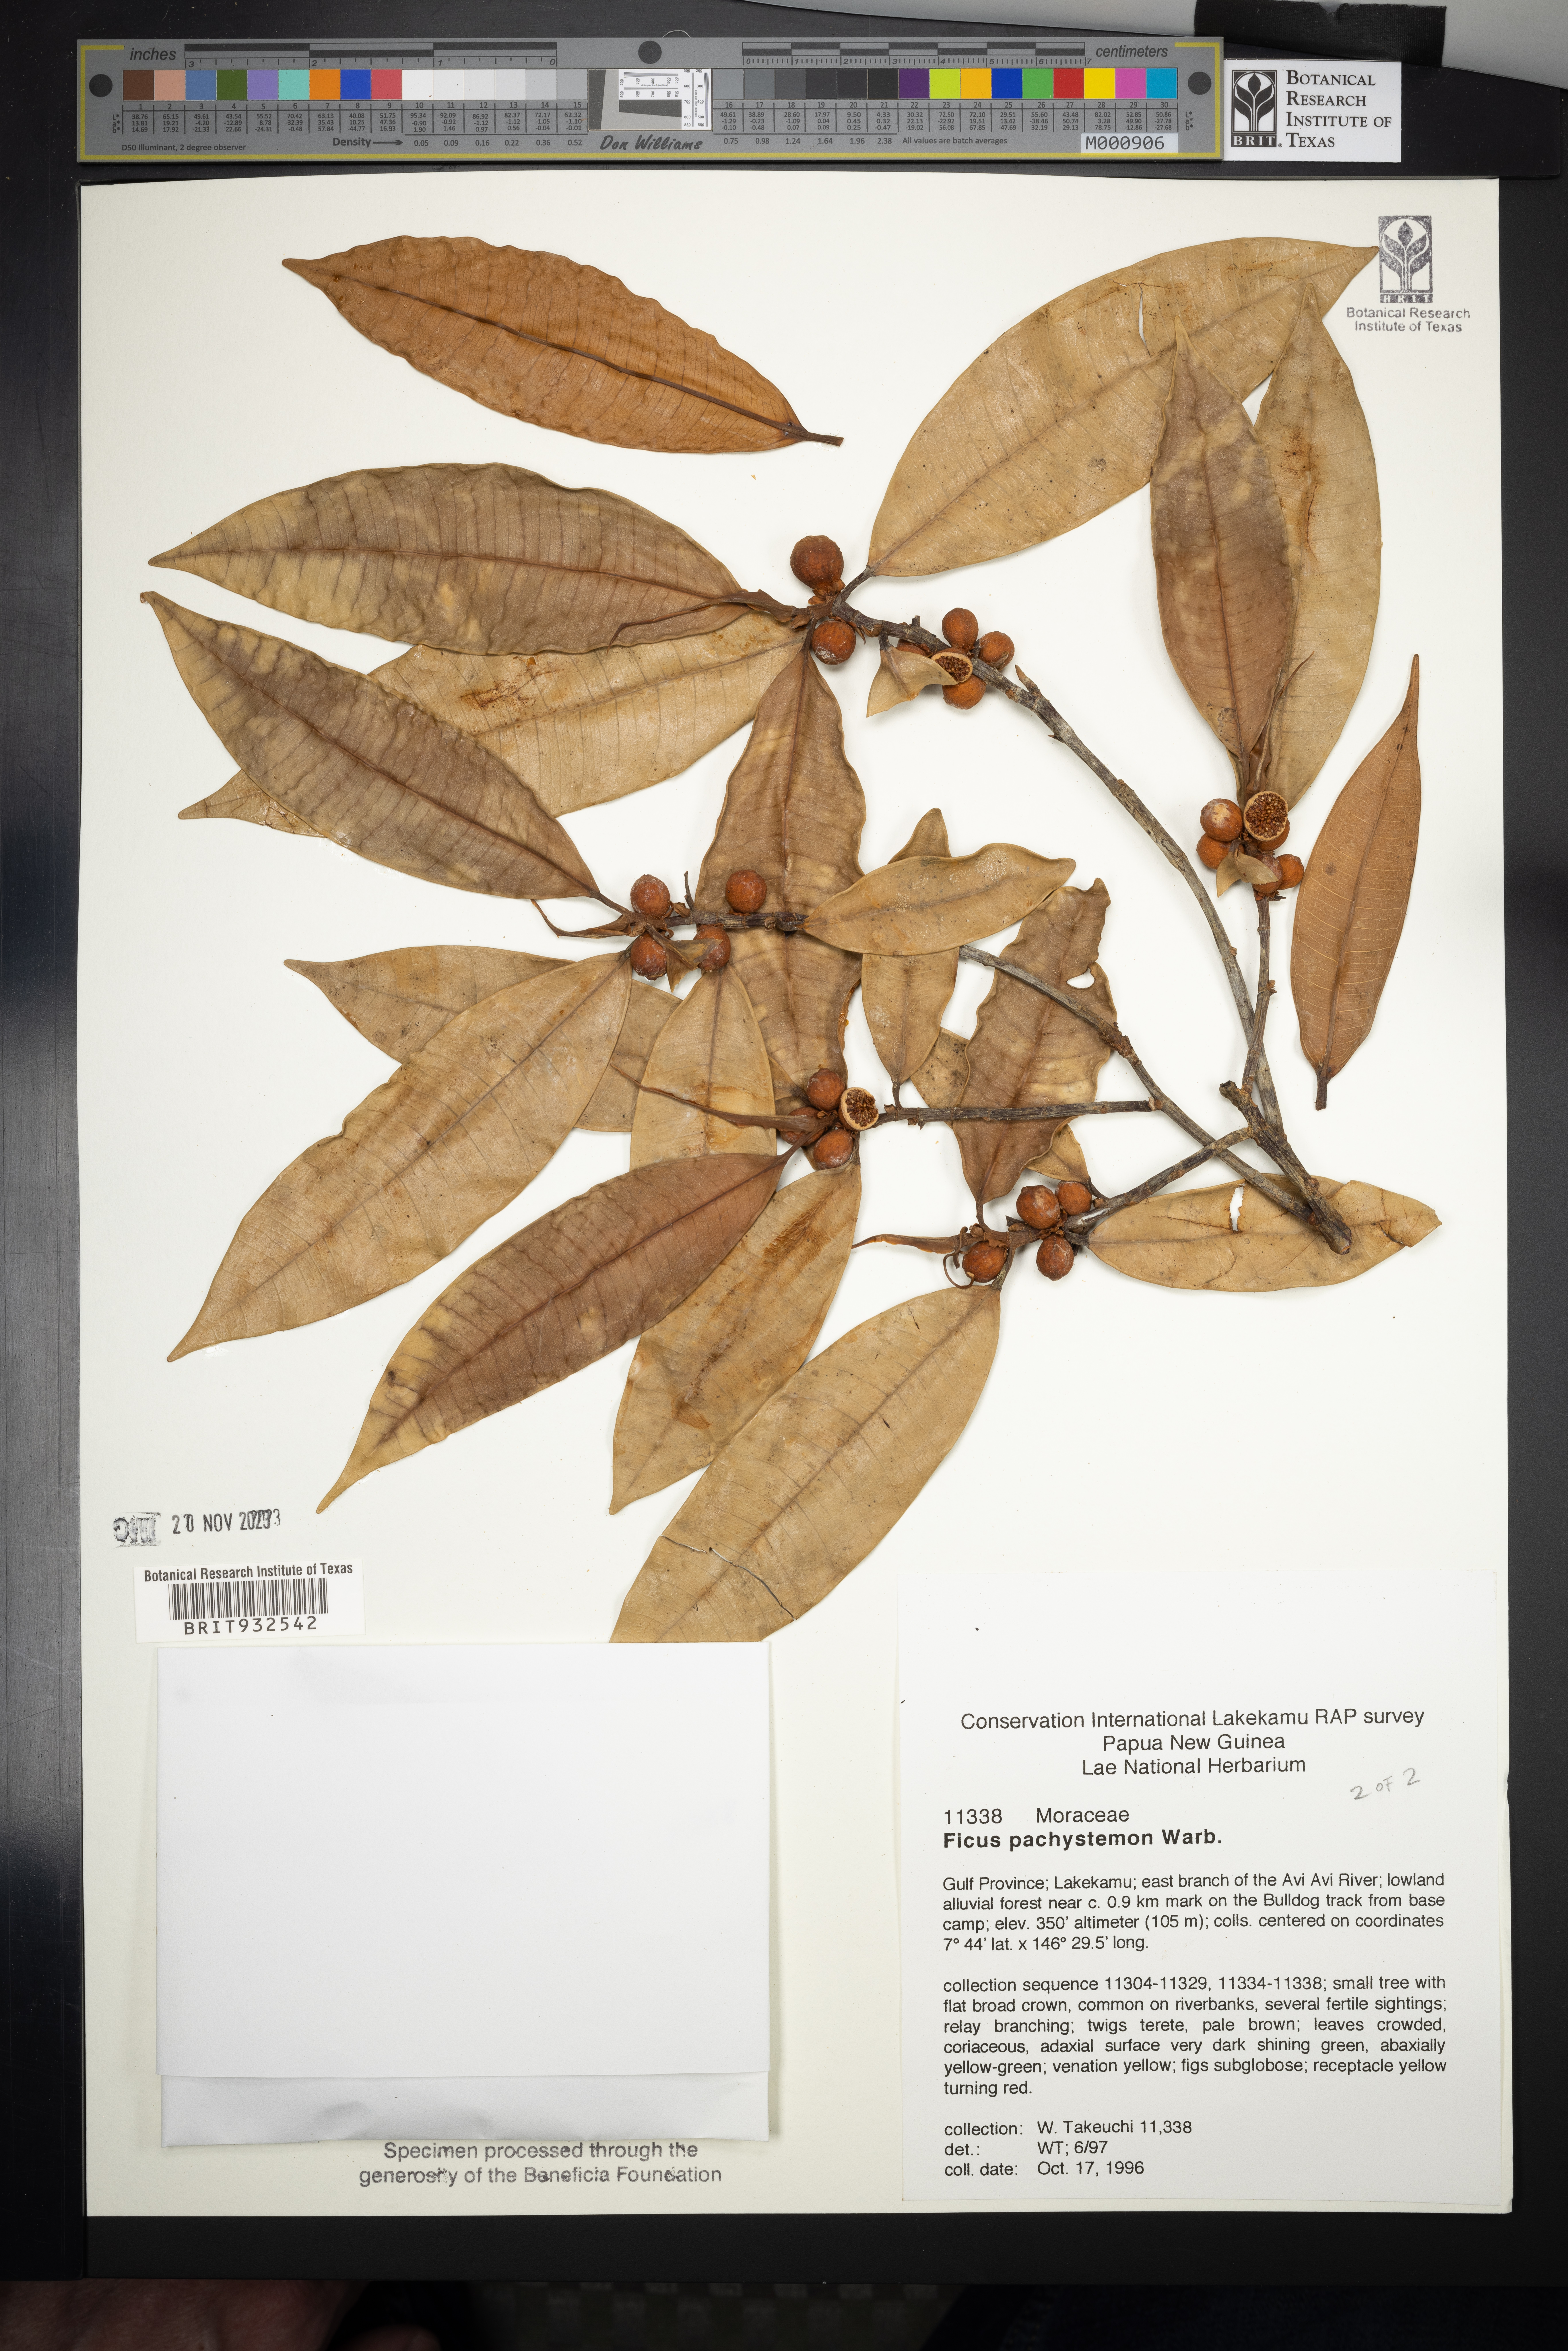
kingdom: Plantae
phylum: Tracheophyta
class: Magnoliopsida
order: Rosales
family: Moraceae
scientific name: Moraceae
